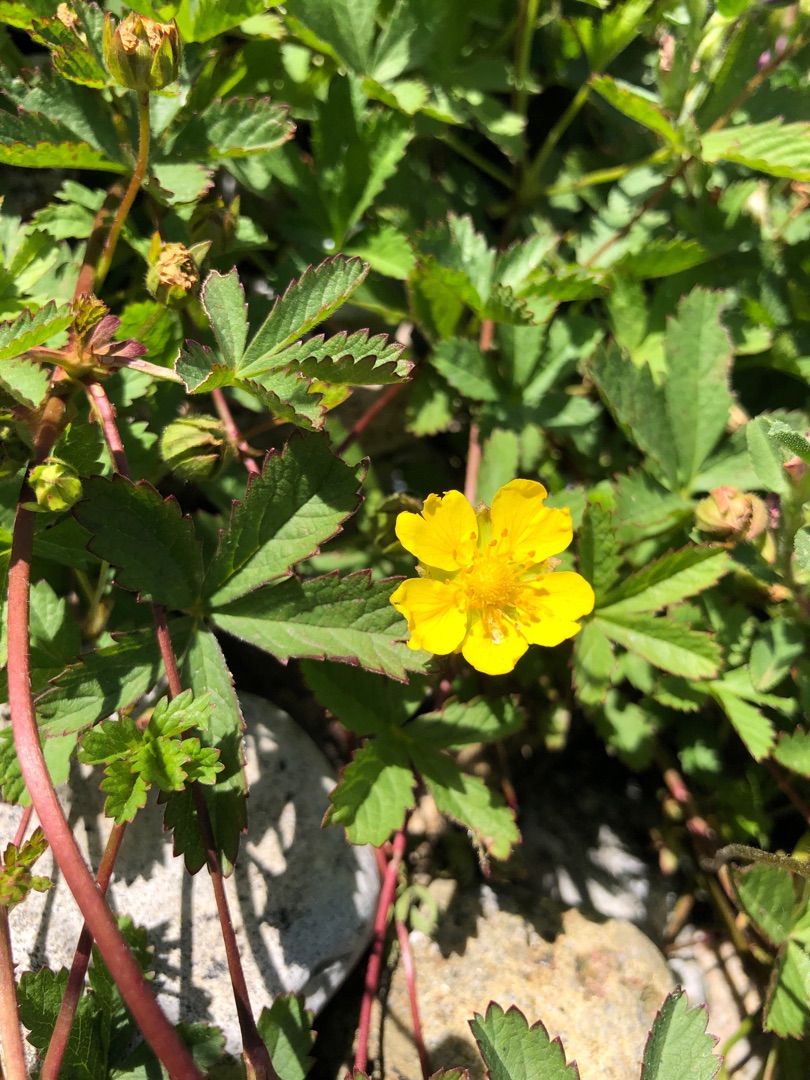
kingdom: Plantae
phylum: Tracheophyta
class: Magnoliopsida
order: Rosales
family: Rosaceae
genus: Potentilla
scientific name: Potentilla reptans
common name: Krybende potentil
